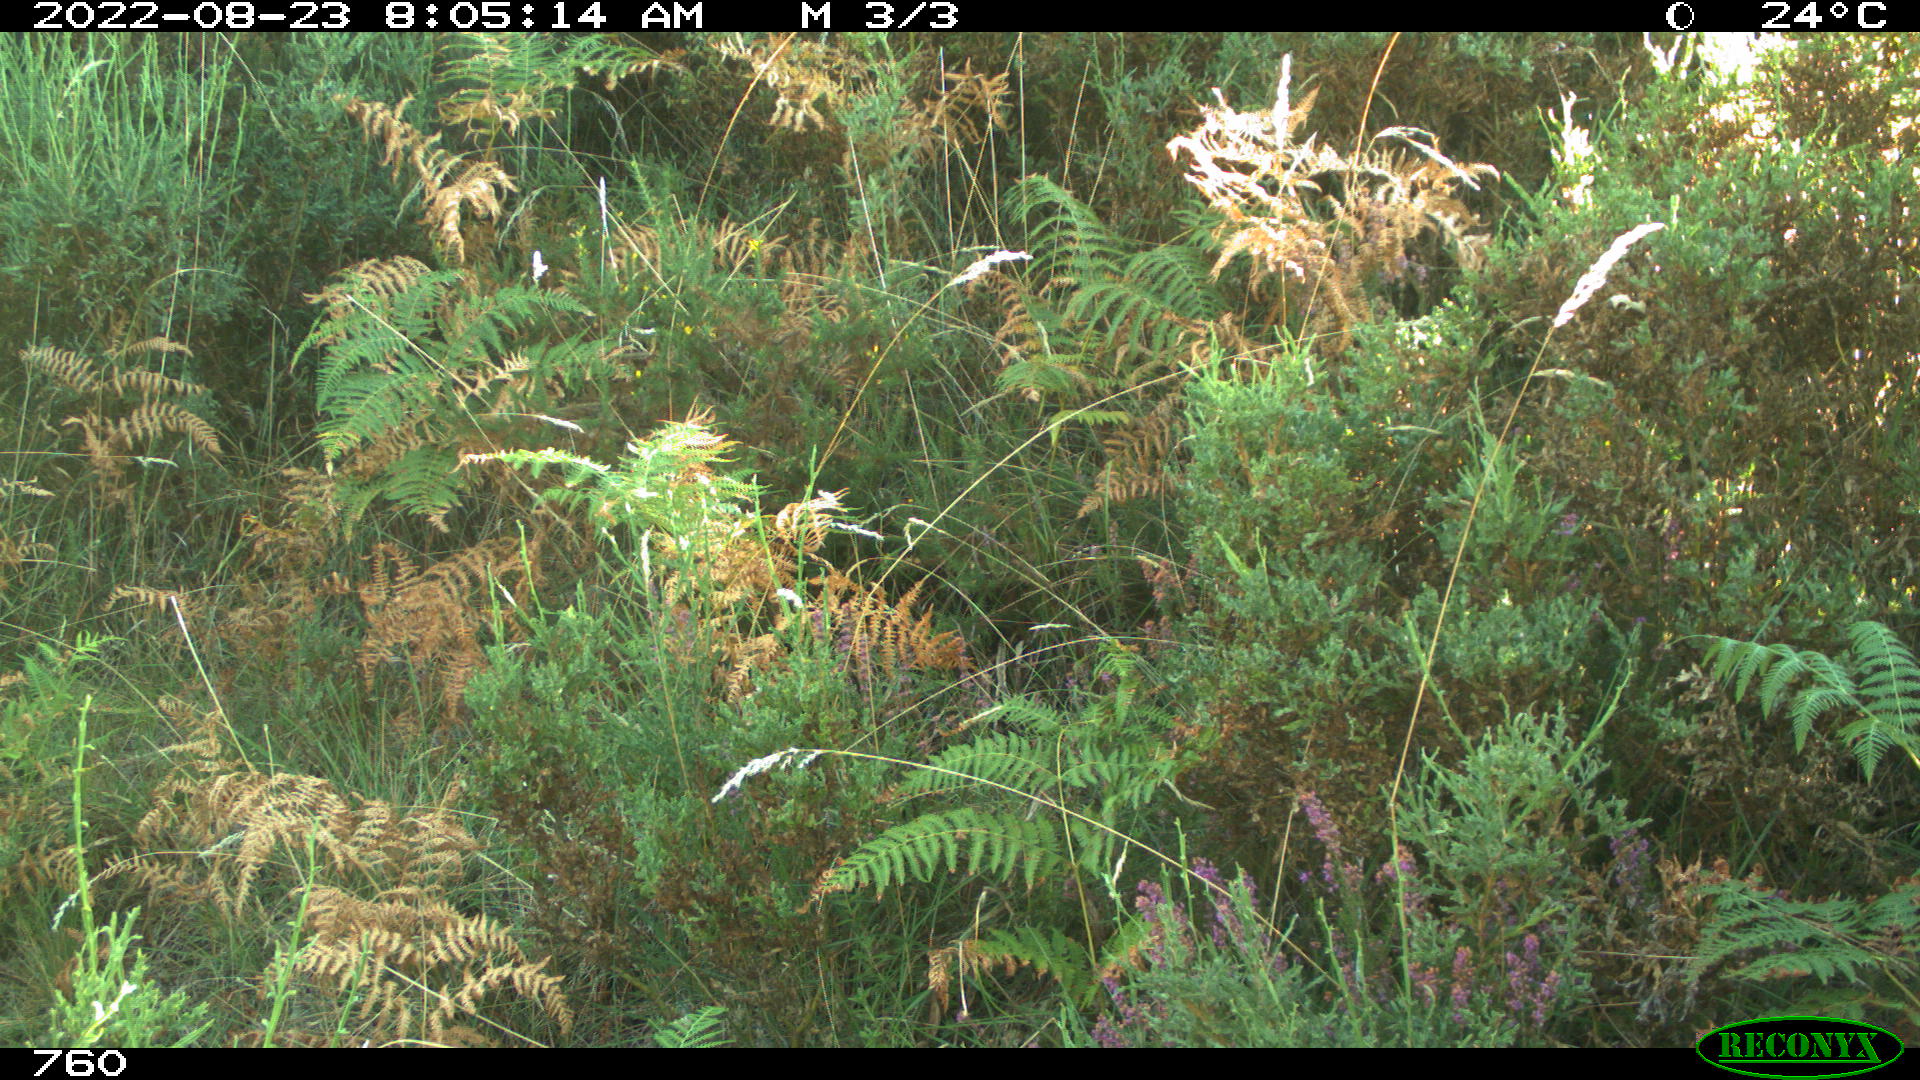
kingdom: Animalia
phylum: Chordata
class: Mammalia
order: Artiodactyla
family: Suidae
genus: Sus
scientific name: Sus scrofa
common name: Wild boar
